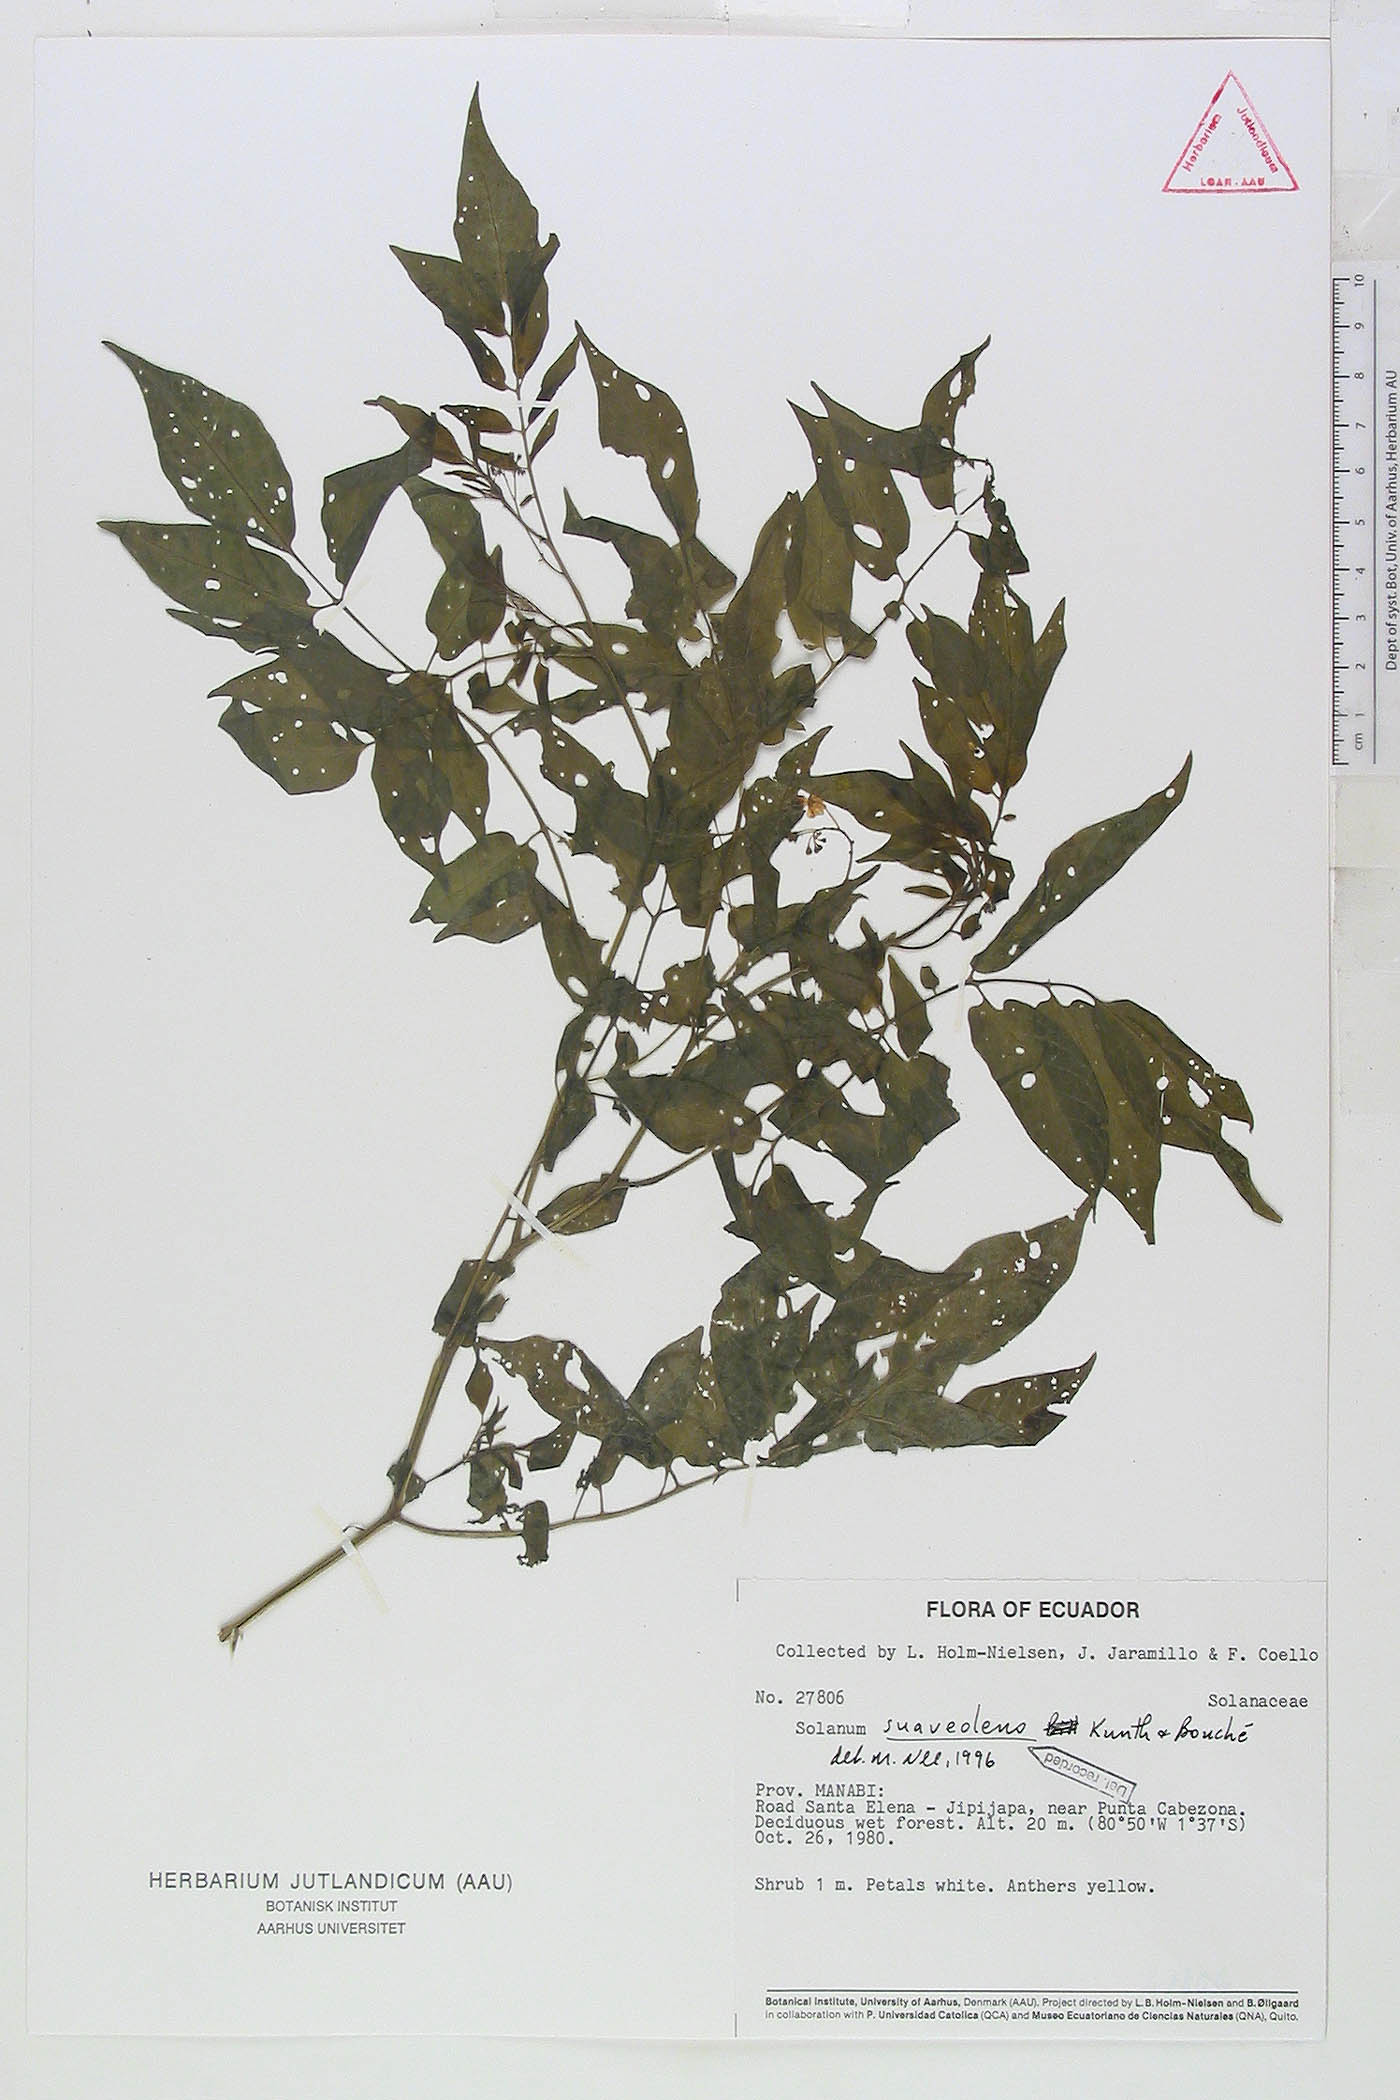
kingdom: Plantae
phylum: Tracheophyta
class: Magnoliopsida
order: Solanales
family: Solanaceae
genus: Solanum
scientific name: Solanum suaveolens
